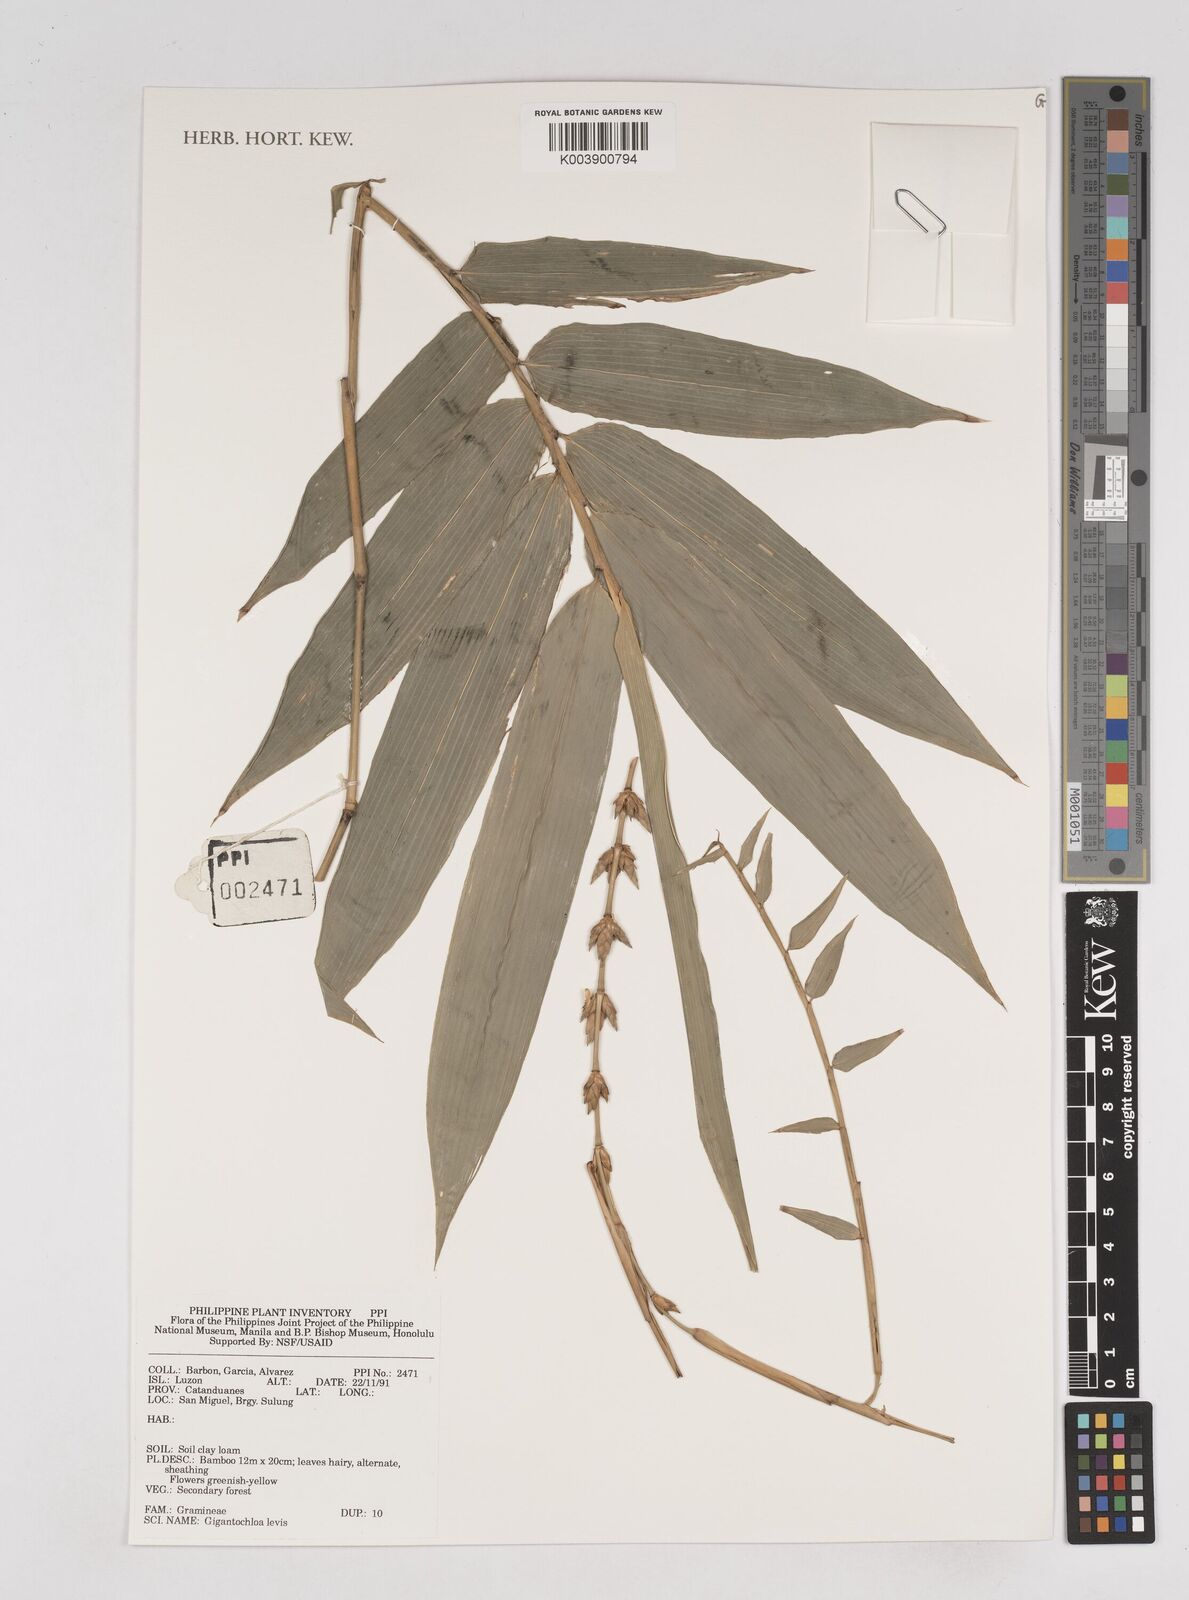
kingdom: Plantae
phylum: Tracheophyta
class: Liliopsida
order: Poales
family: Poaceae
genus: Gigantochloa
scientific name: Gigantochloa levis
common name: Smooth-shoot gigantochloa
